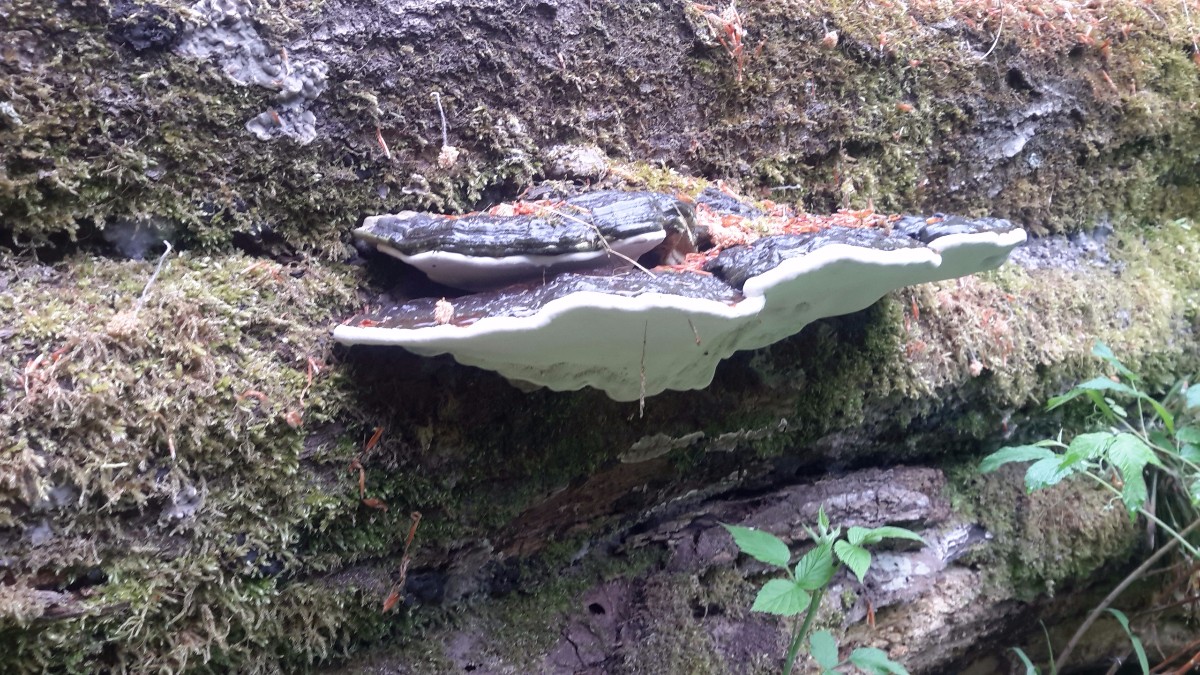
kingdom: Fungi
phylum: Basidiomycota
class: Agaricomycetes
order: Polyporales
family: Polyporaceae
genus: Ganoderma
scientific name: Ganoderma applanatum
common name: flad lakporesvamp
